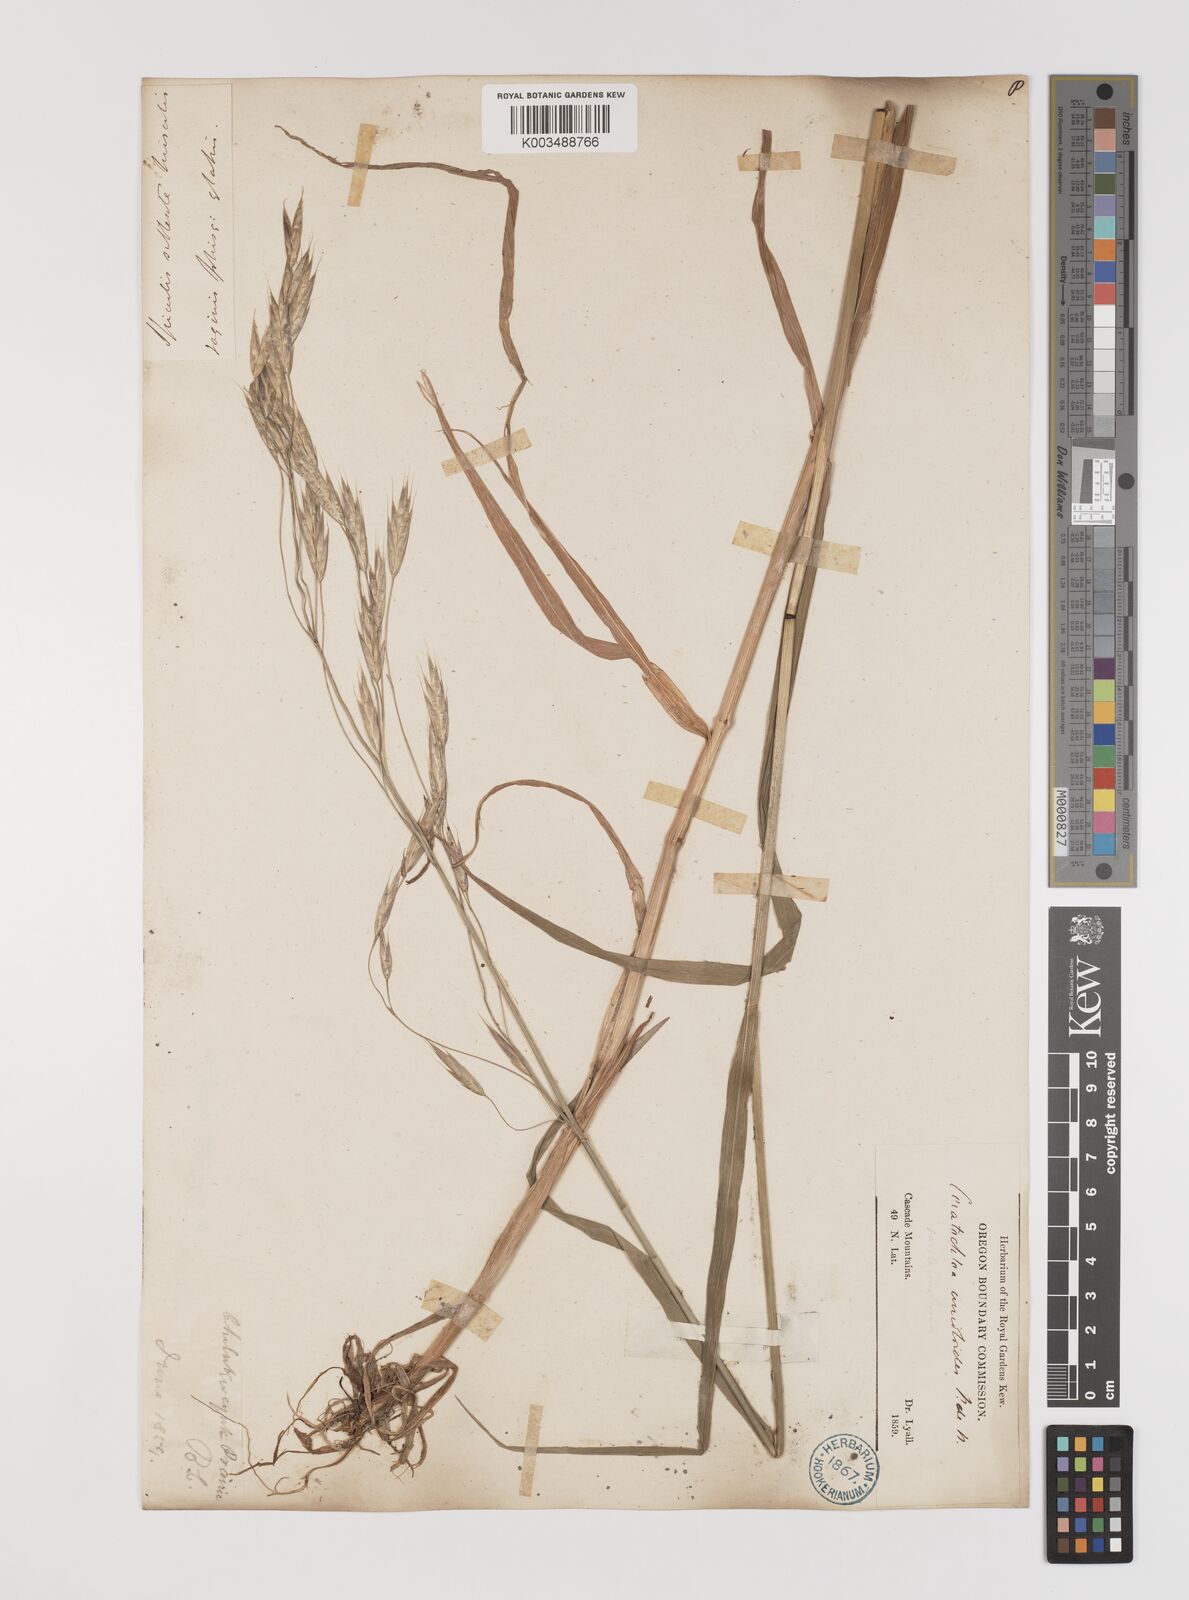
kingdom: Plantae
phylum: Tracheophyta
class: Liliopsida
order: Poales
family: Poaceae
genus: Bromus
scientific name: Bromus
